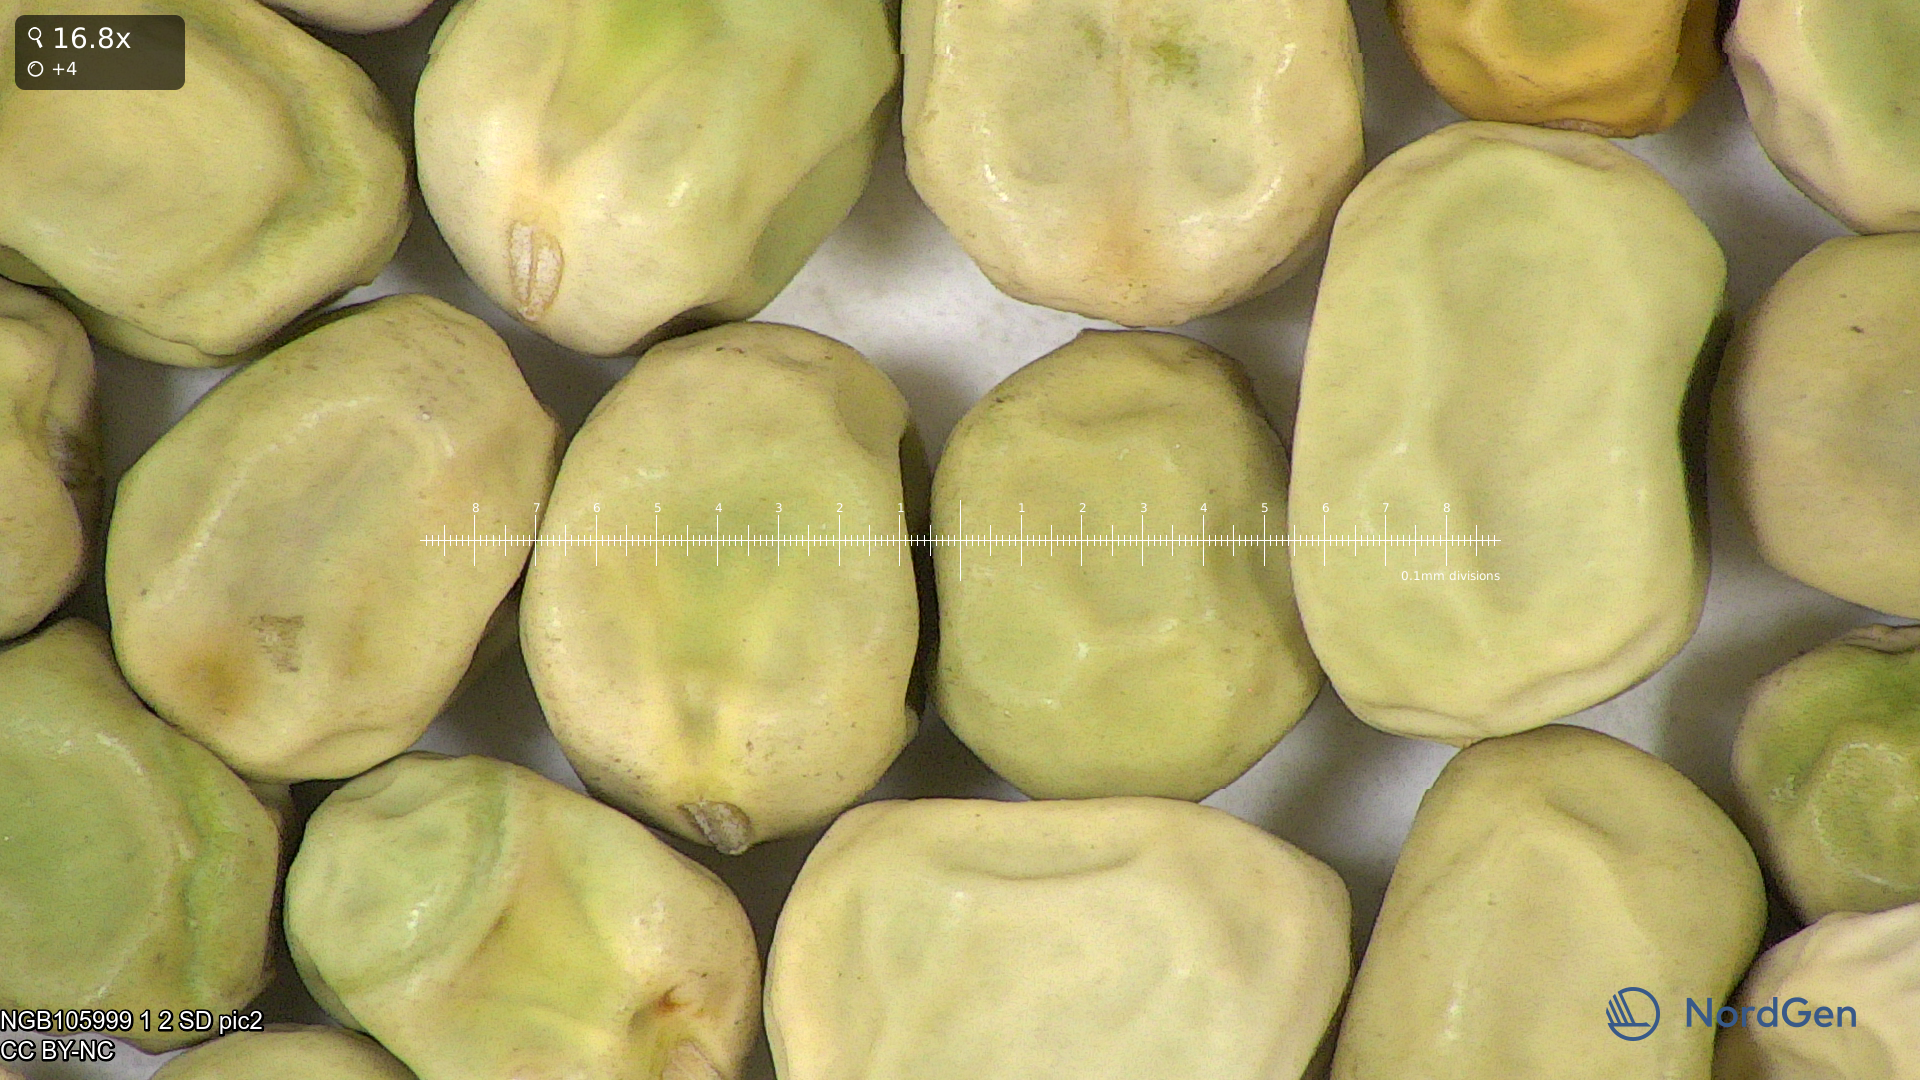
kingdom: Plantae
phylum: Tracheophyta
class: Magnoliopsida
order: Fabales
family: Fabaceae
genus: Lathyrus
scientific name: Lathyrus oleraceus
